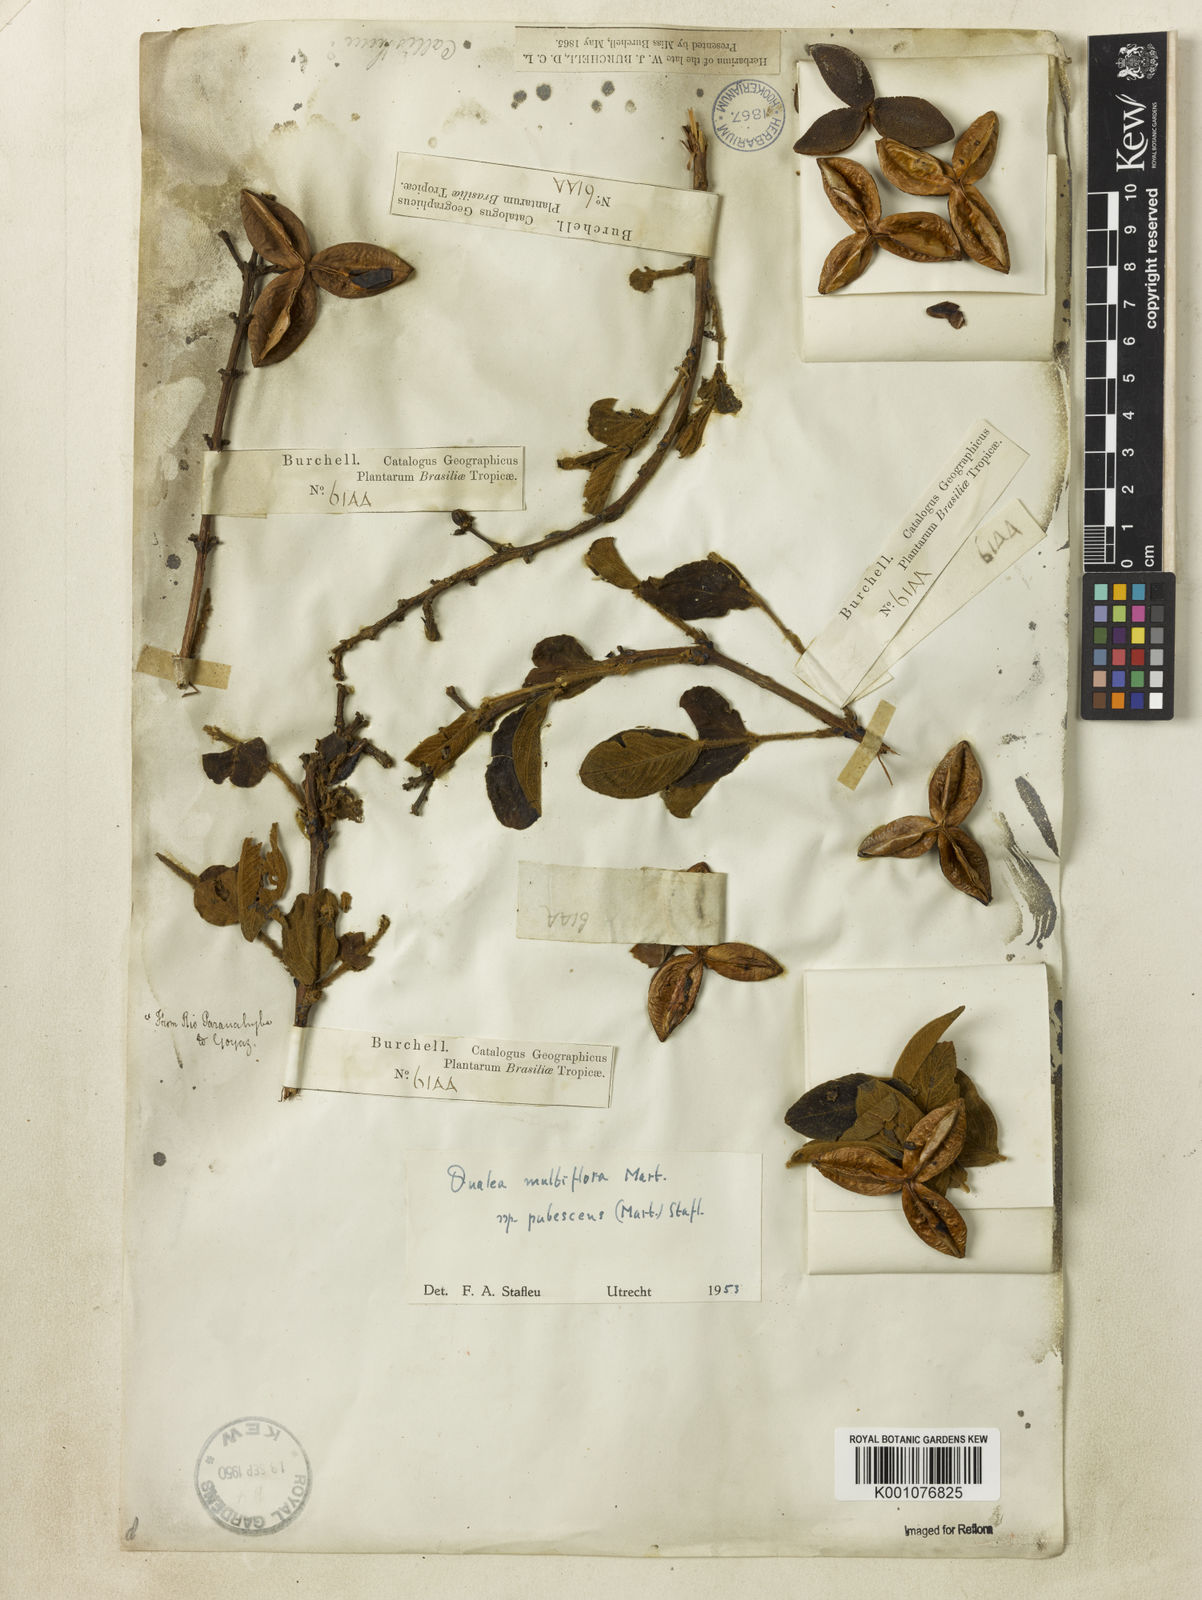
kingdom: Plantae
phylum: Tracheophyta
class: Magnoliopsida
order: Myrtales
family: Vochysiaceae
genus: Qualea
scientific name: Qualea multiflora
